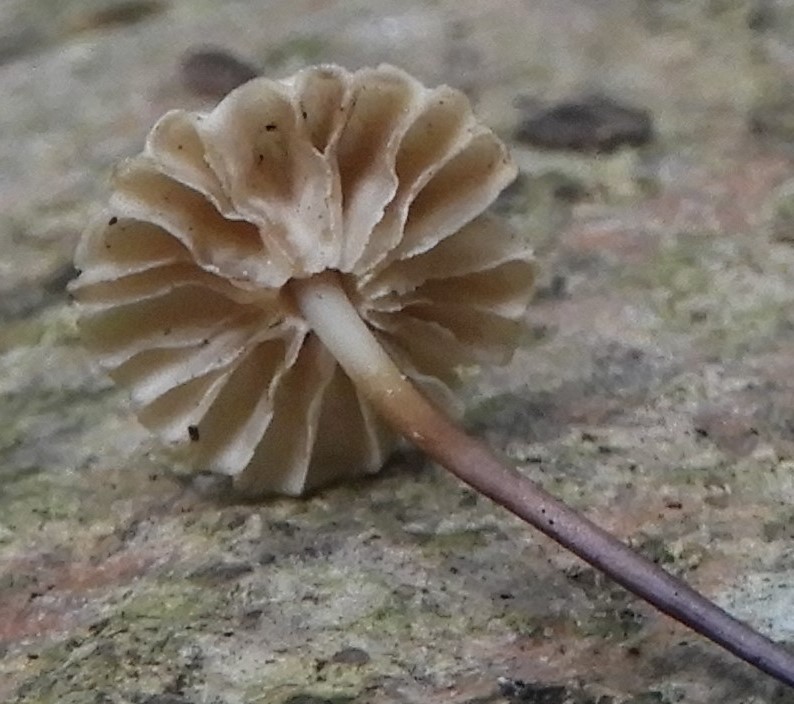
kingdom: Fungi
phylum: Basidiomycota
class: Agaricomycetes
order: Agaricales
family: Marasmiaceae
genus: Marasmius
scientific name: Marasmius rotula
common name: hjul-bruskhat
